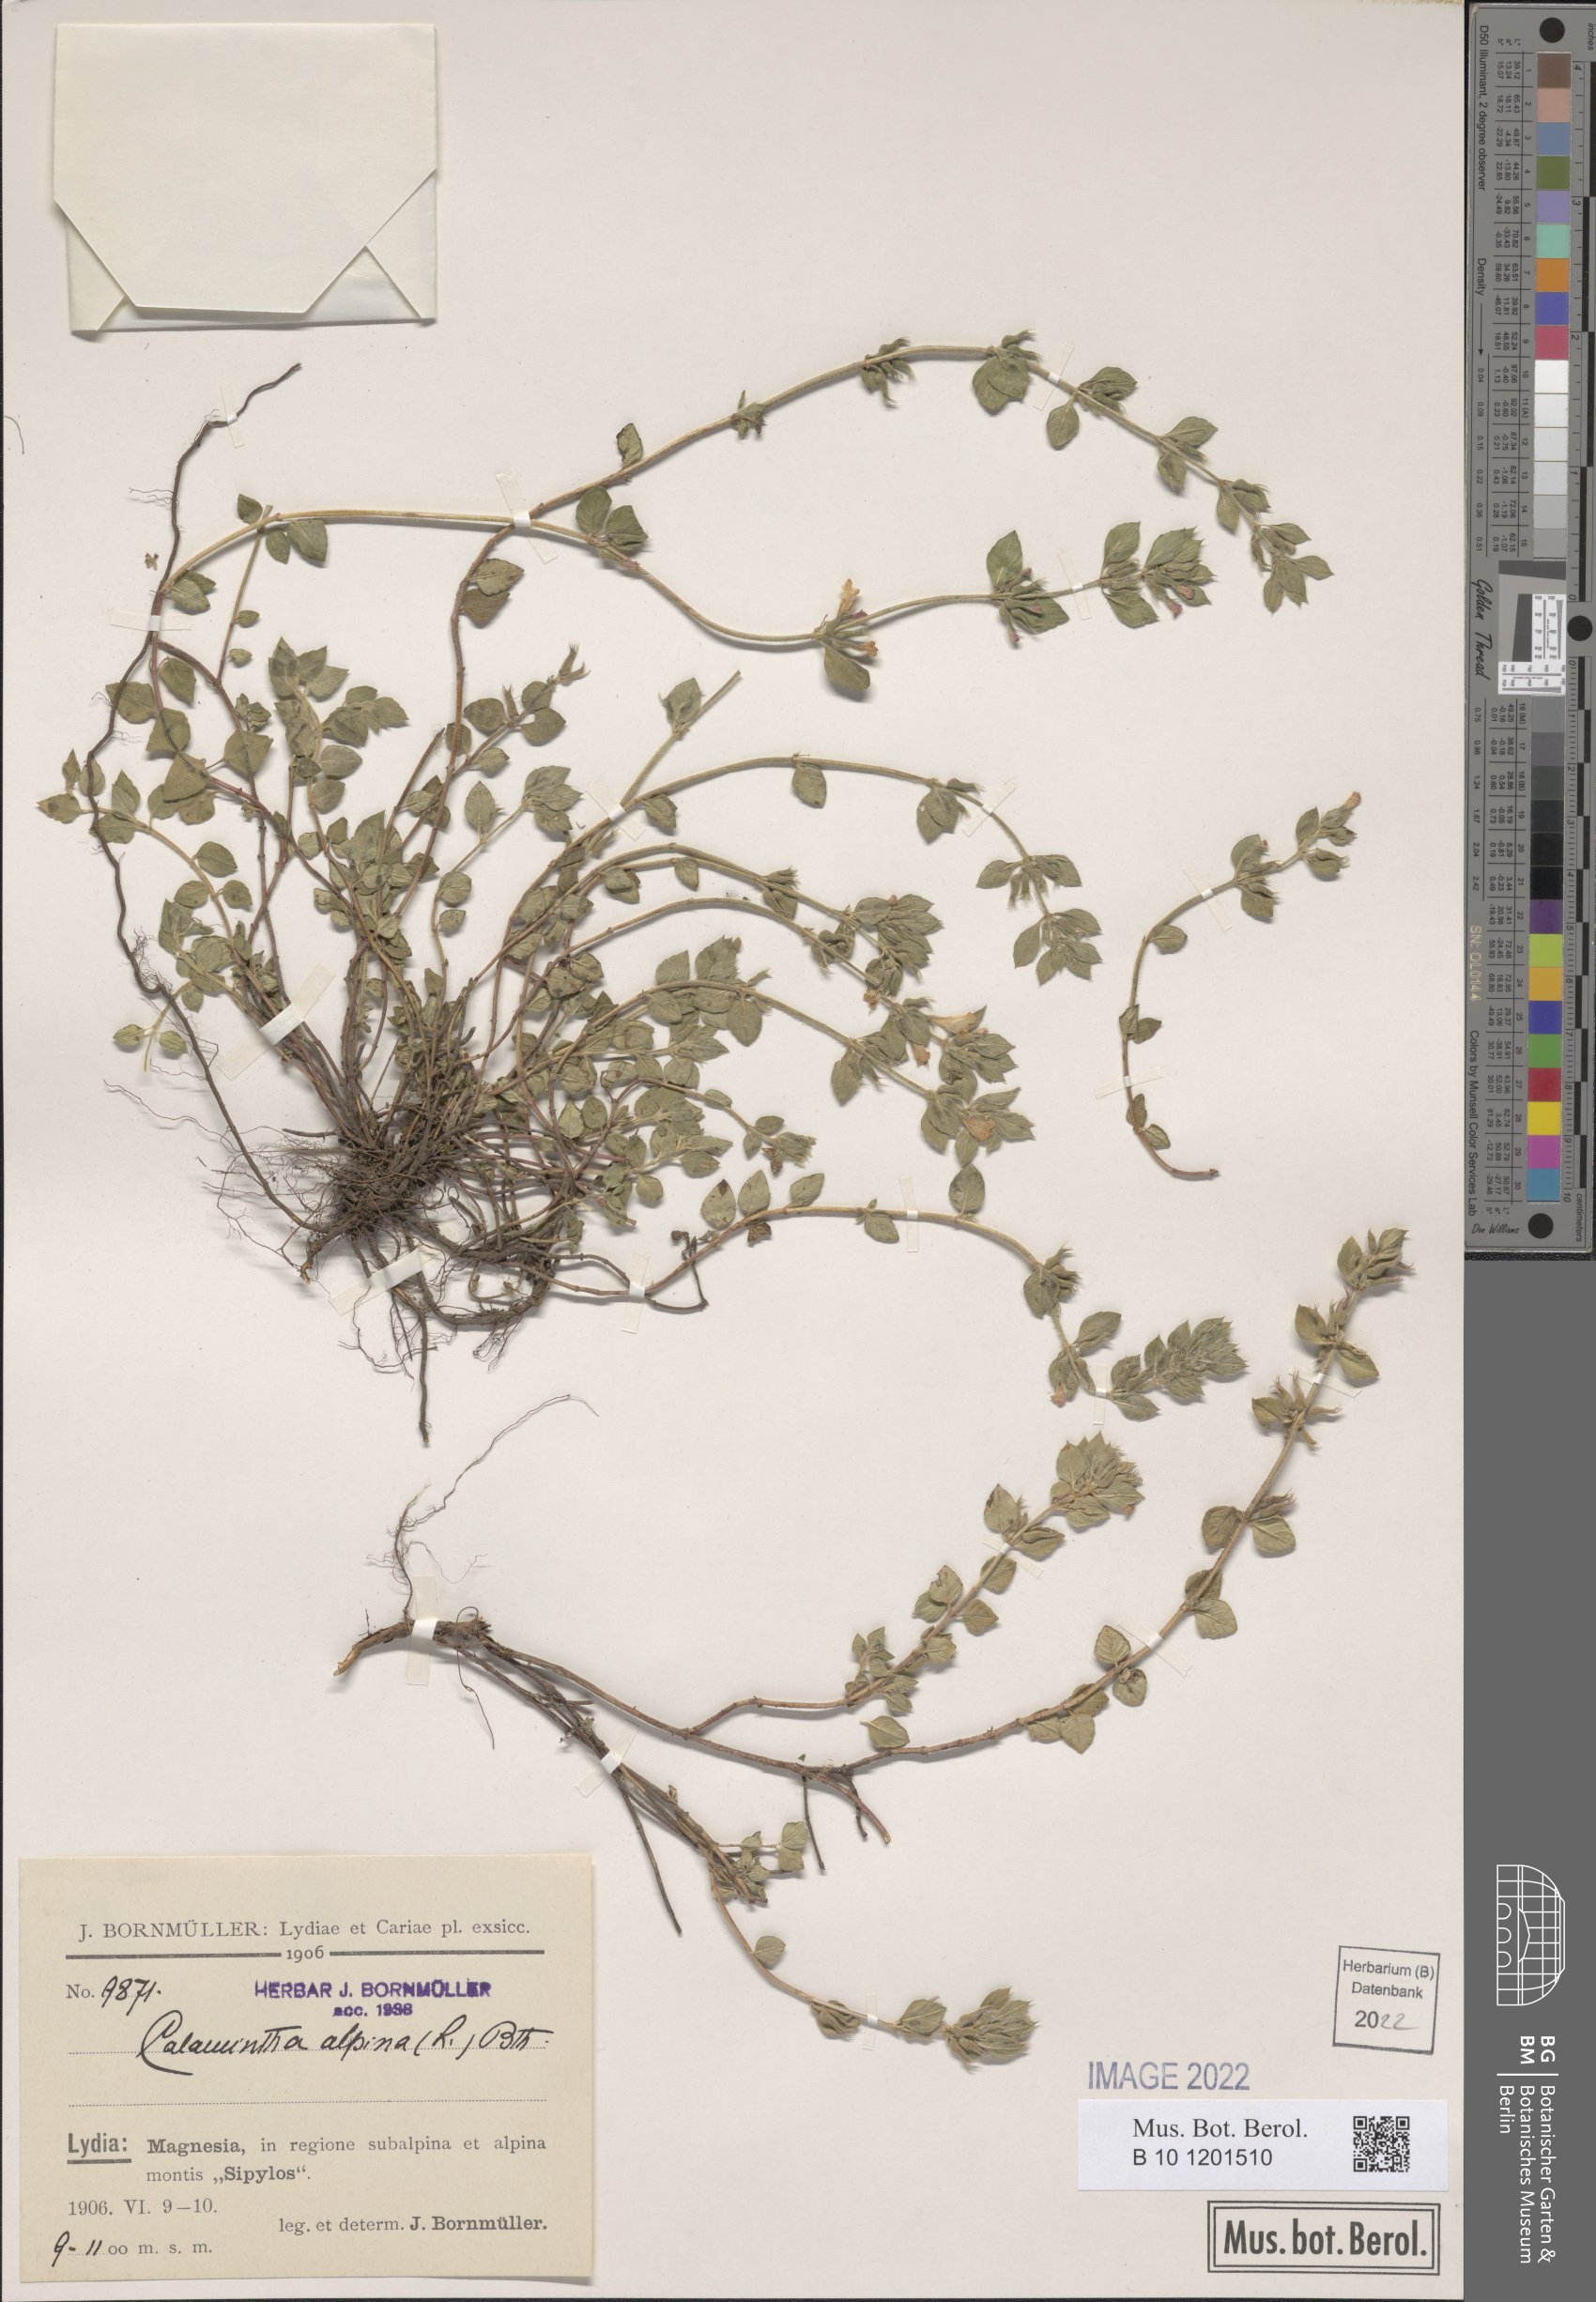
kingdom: Plantae
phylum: Tracheophyta
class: Magnoliopsida
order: Lamiales
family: Lamiaceae
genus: Clinopodium
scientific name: Clinopodium alpinum
